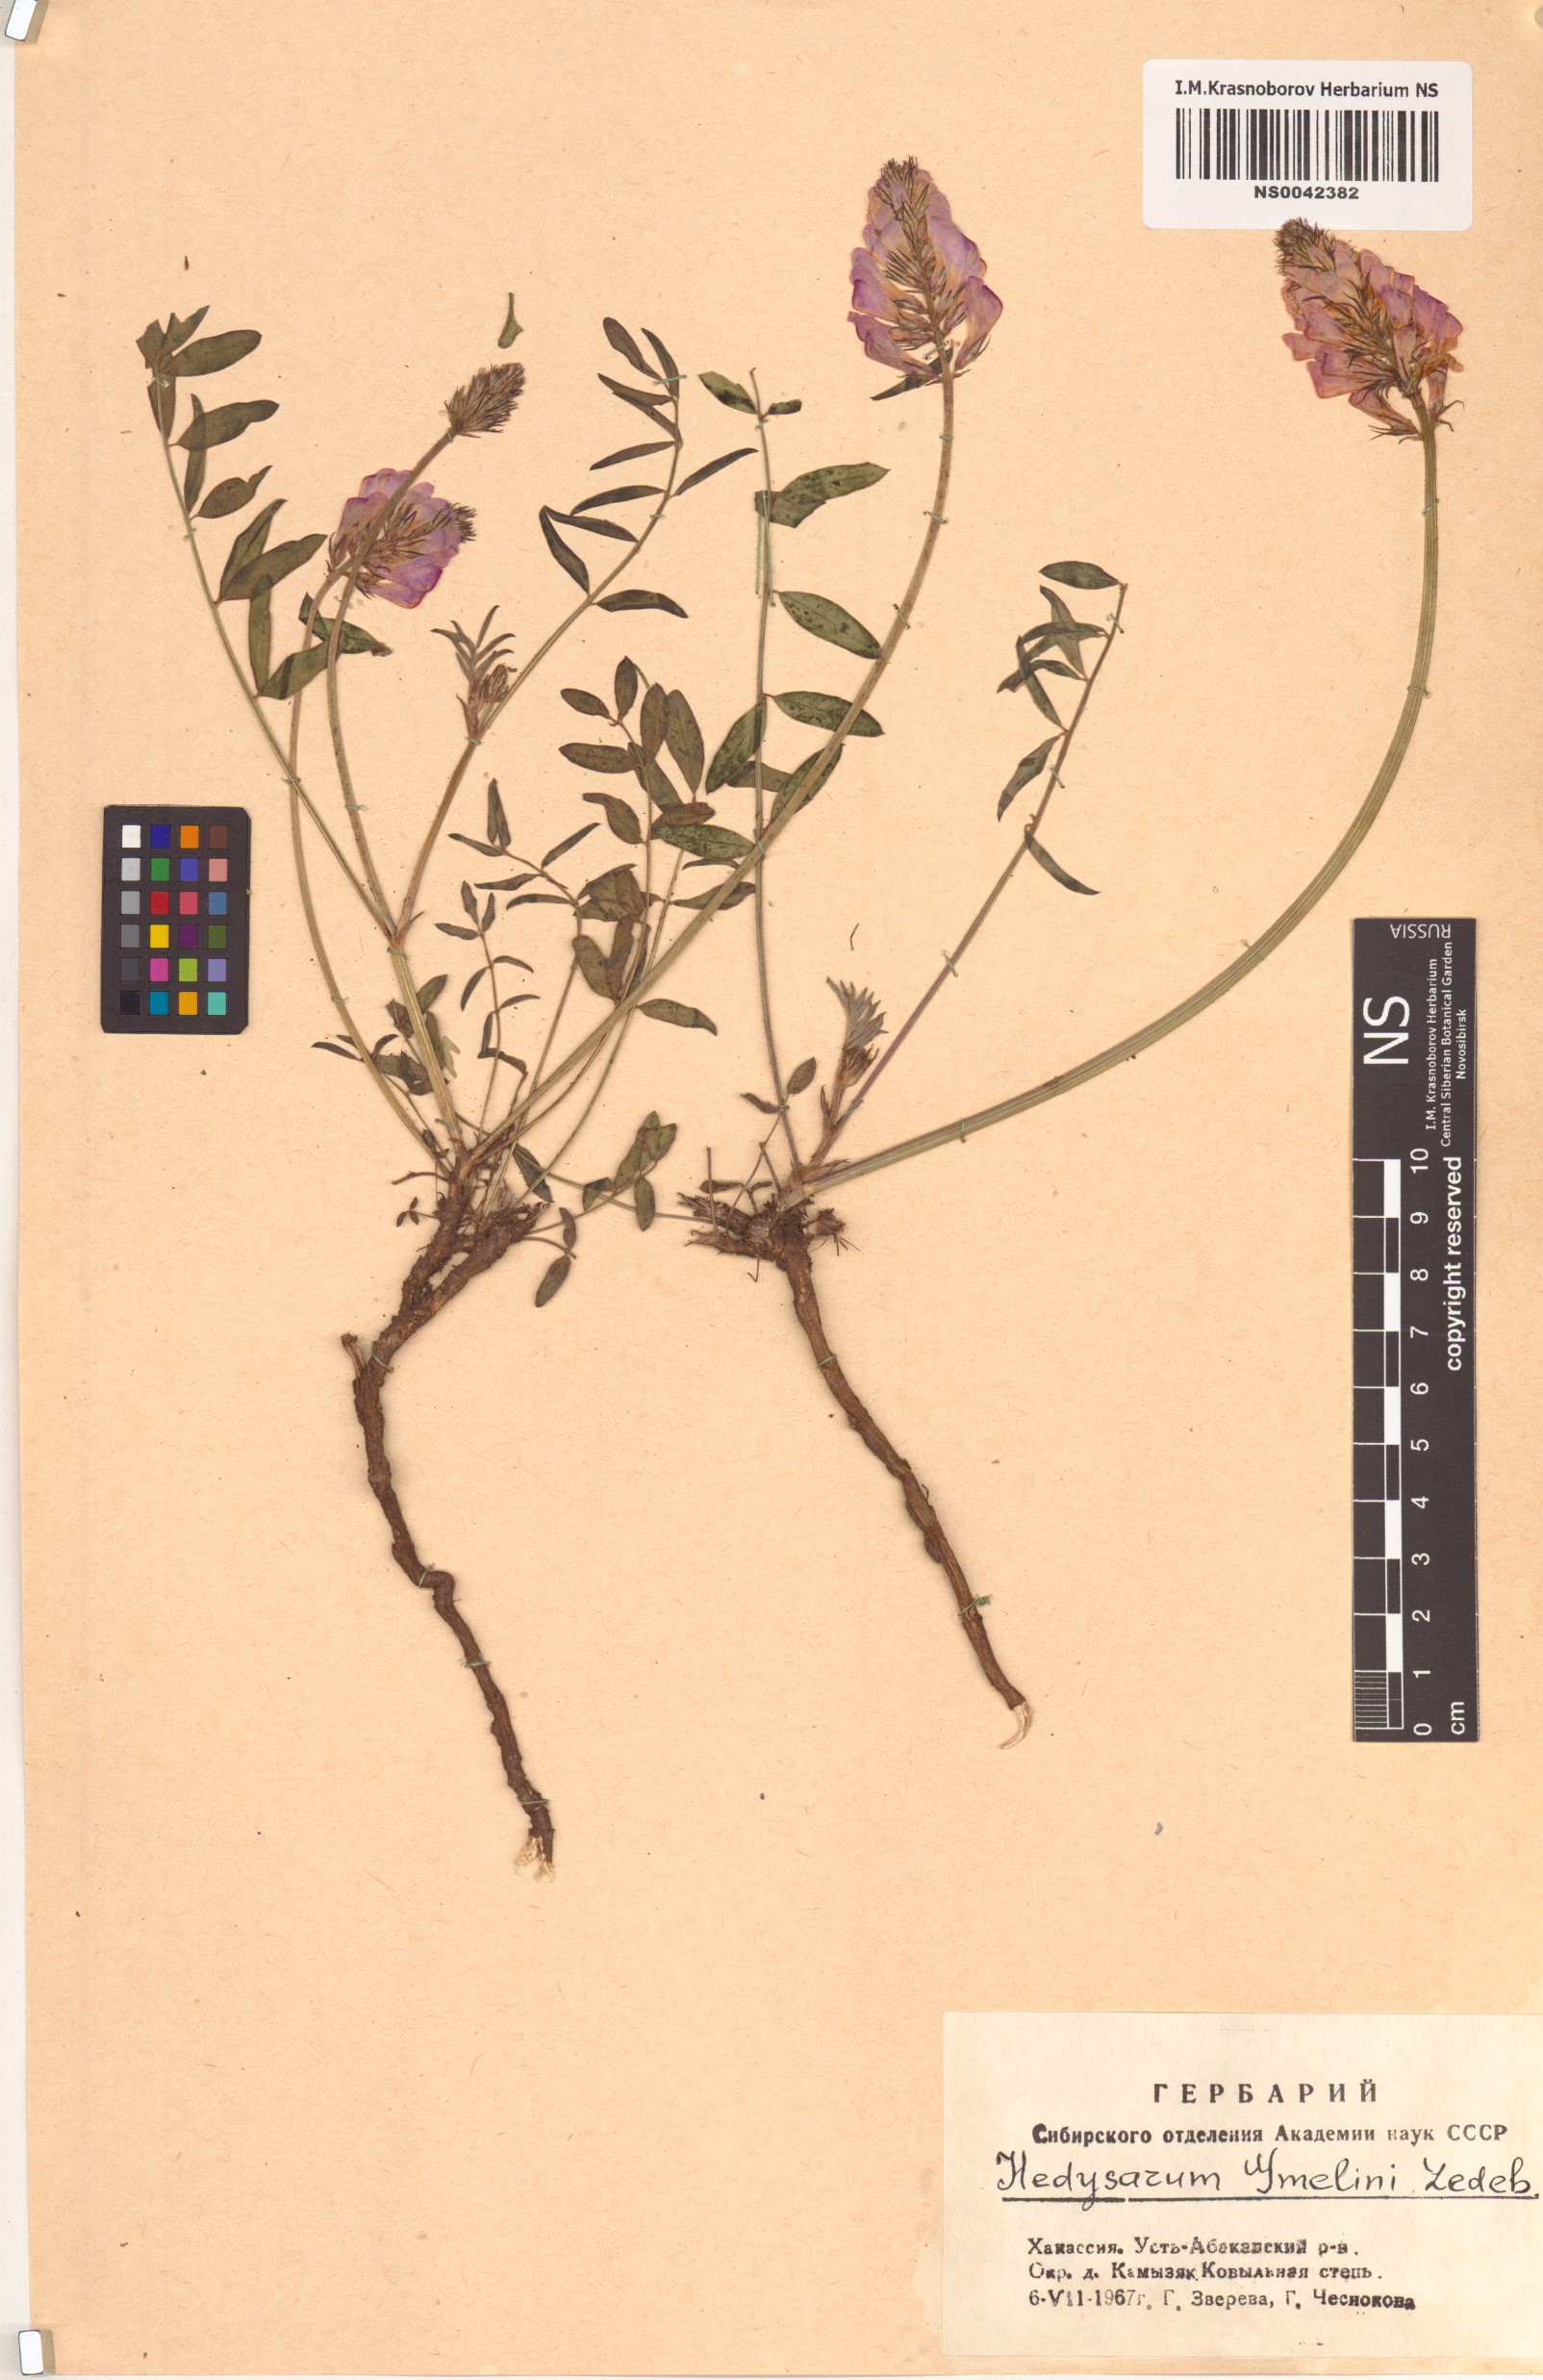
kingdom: Plantae
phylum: Tracheophyta
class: Magnoliopsida
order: Fabales
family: Fabaceae
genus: Hedysarum
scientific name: Hedysarum gmelinii
